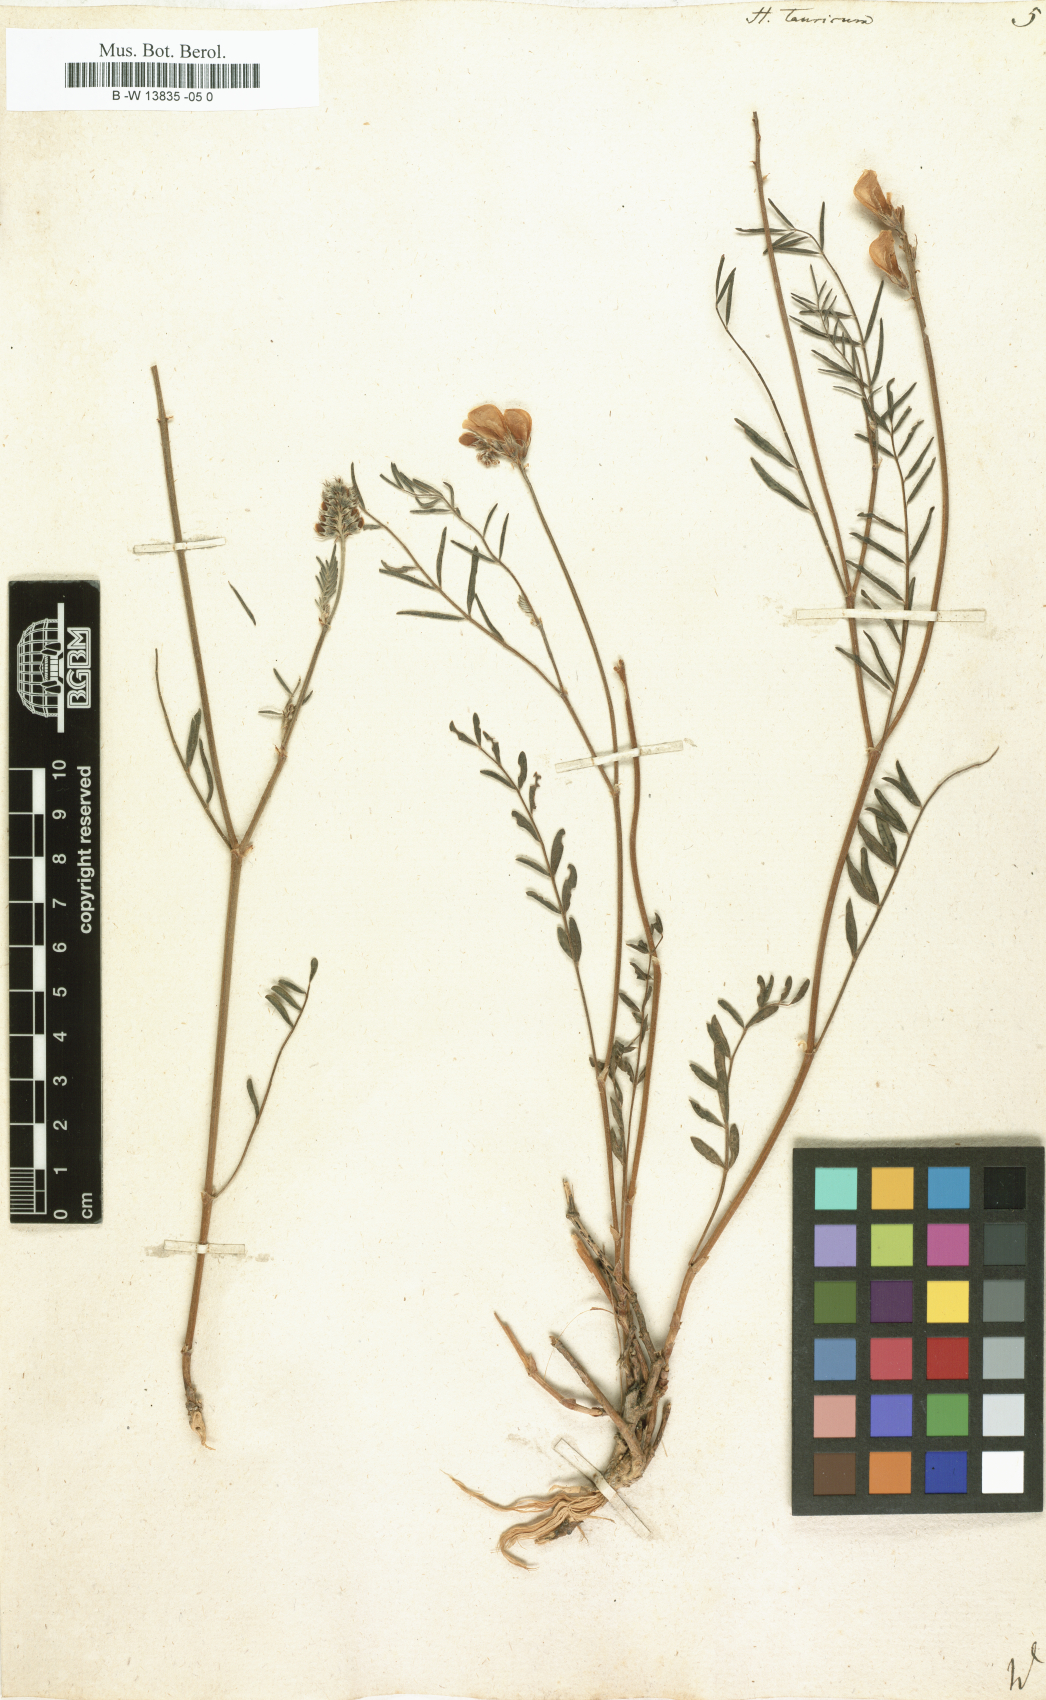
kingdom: Plantae
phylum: Tracheophyta
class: Magnoliopsida
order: Fabales
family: Fabaceae
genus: Hedysarum
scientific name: Hedysarum tauricum
